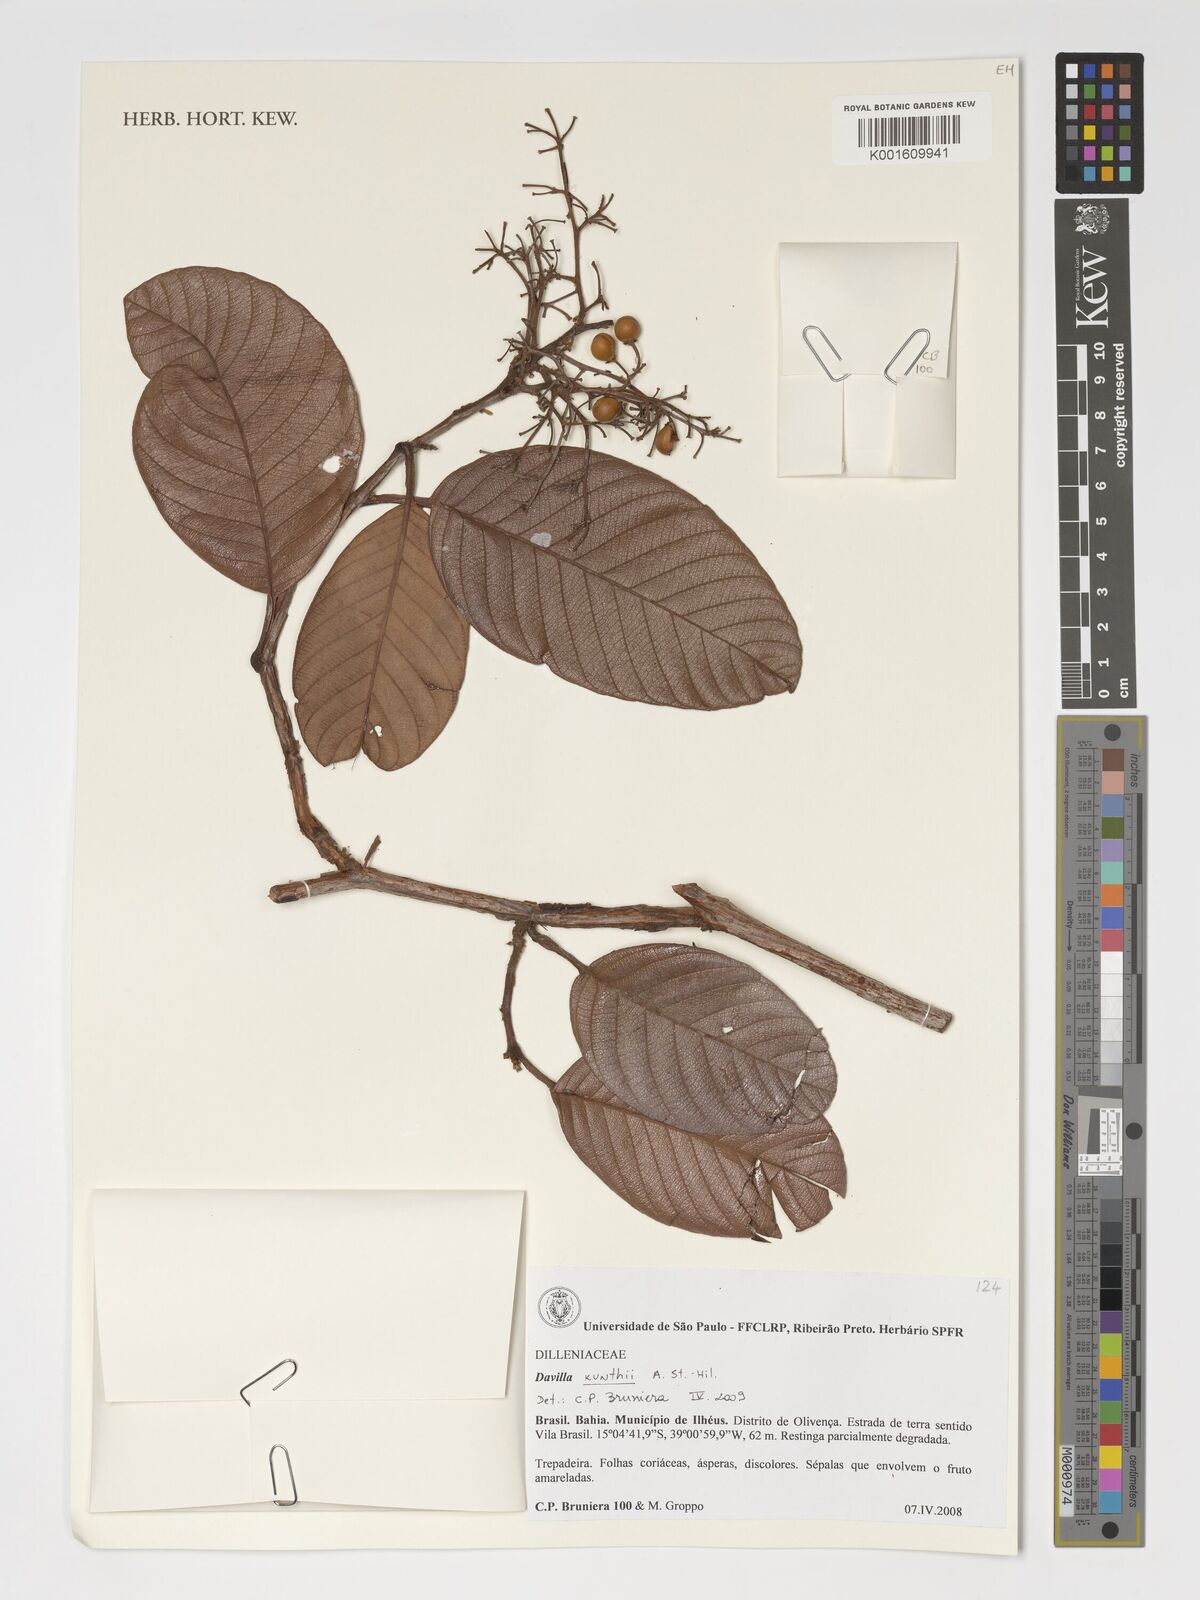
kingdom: Plantae
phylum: Tracheophyta
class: Magnoliopsida
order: Dilleniales
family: Dilleniaceae
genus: Davilla
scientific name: Davilla kunthii
